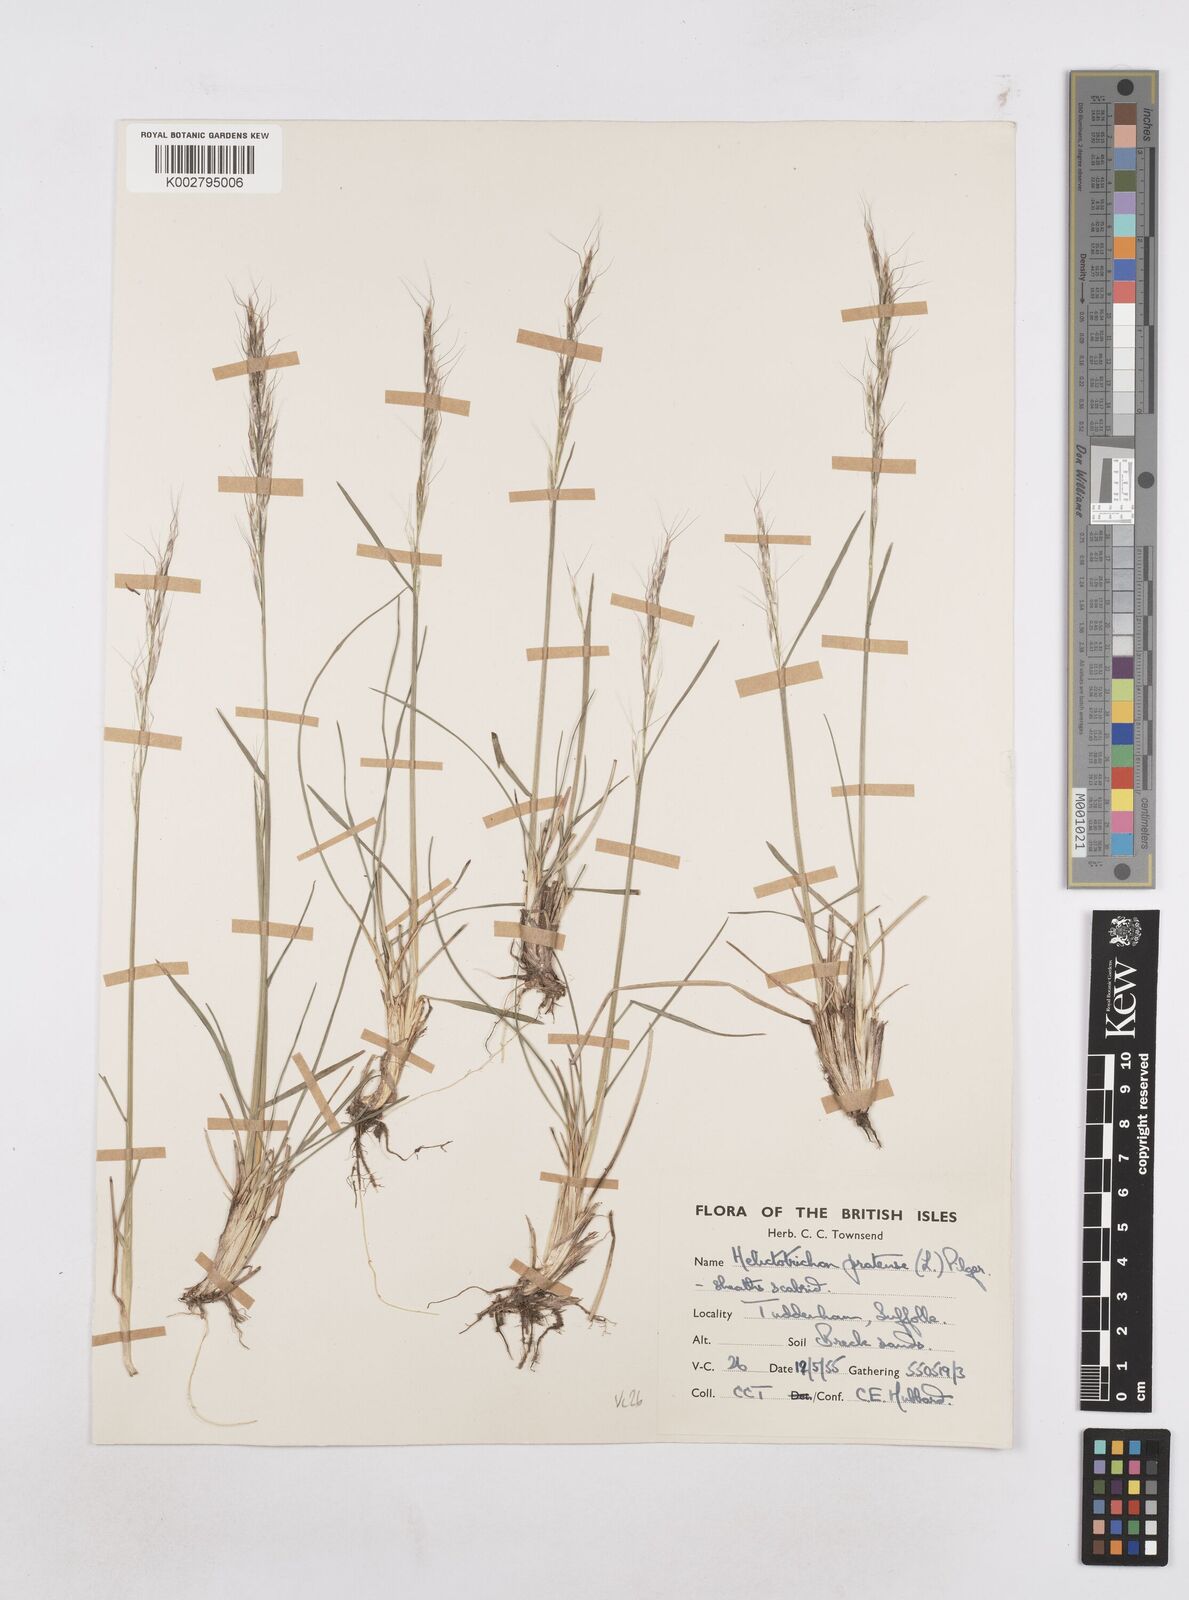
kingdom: Plantae
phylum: Tracheophyta
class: Liliopsida
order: Poales
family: Poaceae
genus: Helictochloa
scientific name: Helictochloa pratensis
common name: Meadow oat grass
